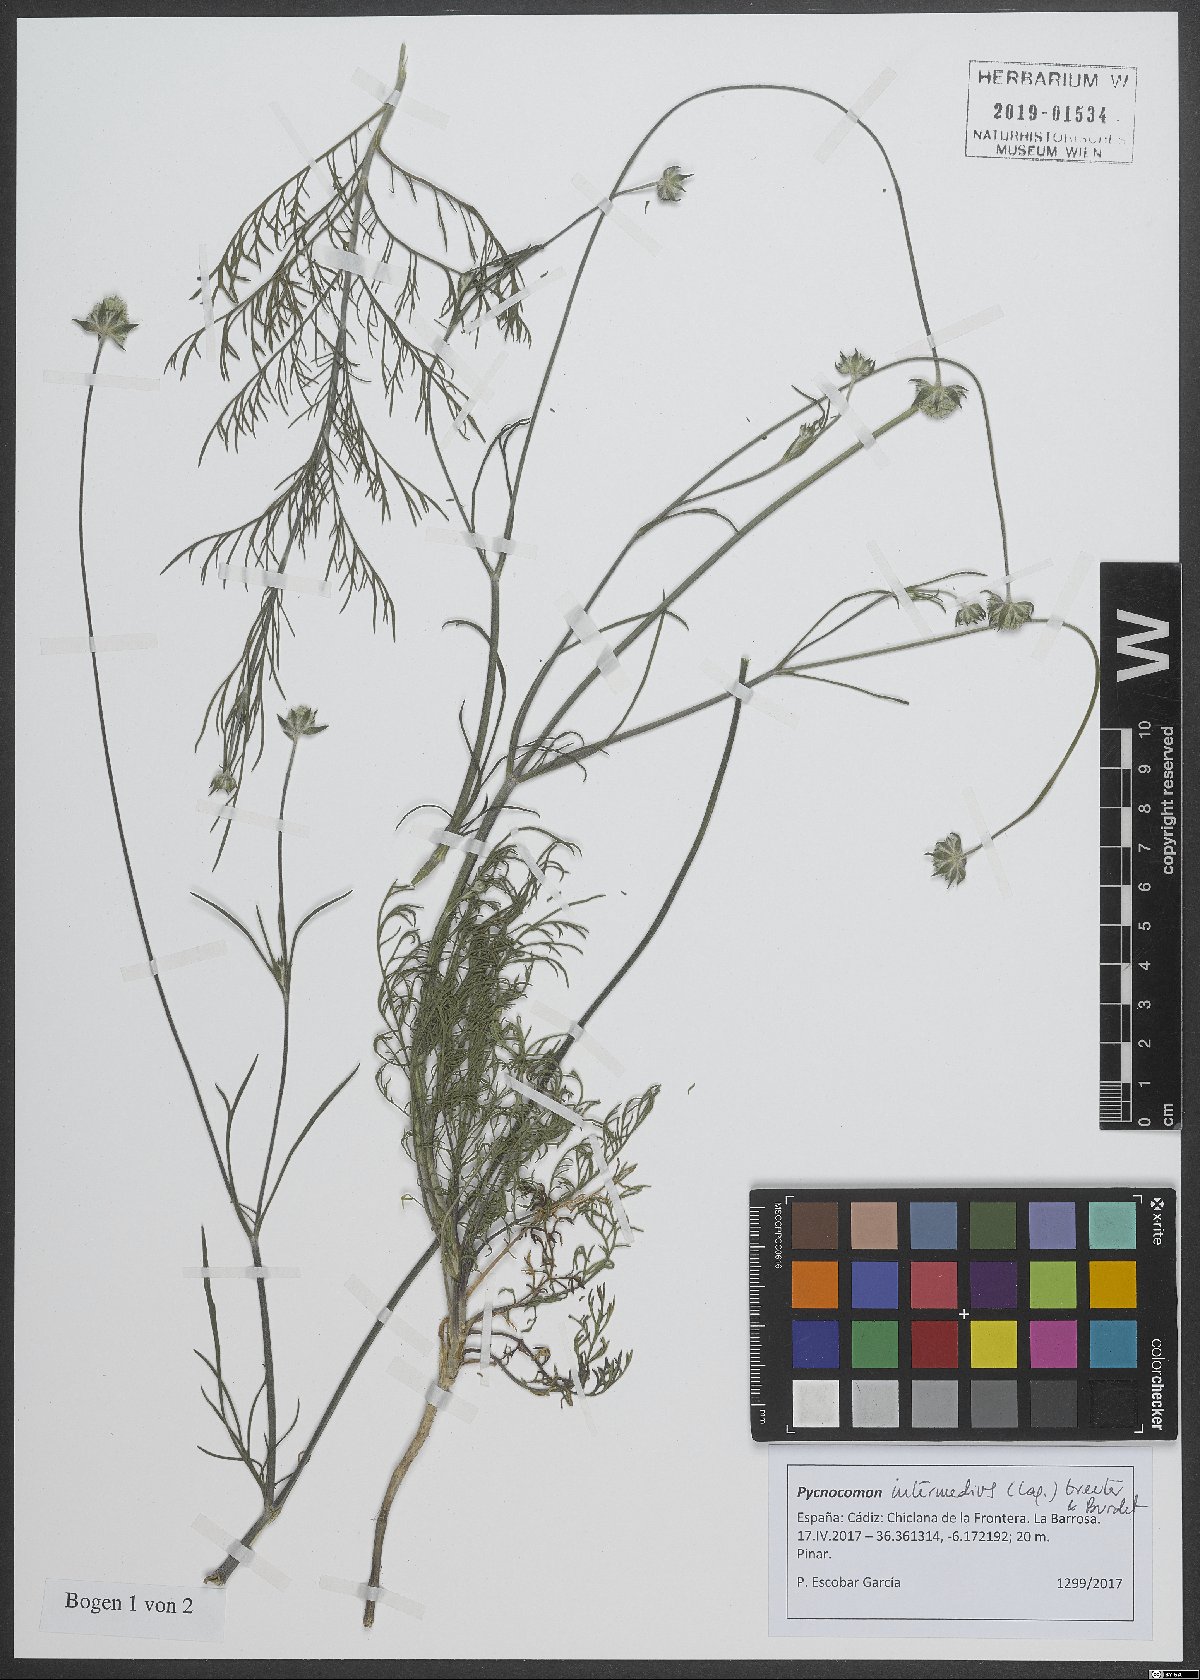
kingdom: Plantae
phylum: Tracheophyta
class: Magnoliopsida
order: Dipsacales
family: Caprifoliaceae
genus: Pycnocomon
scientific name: Pycnocomon intermedium
